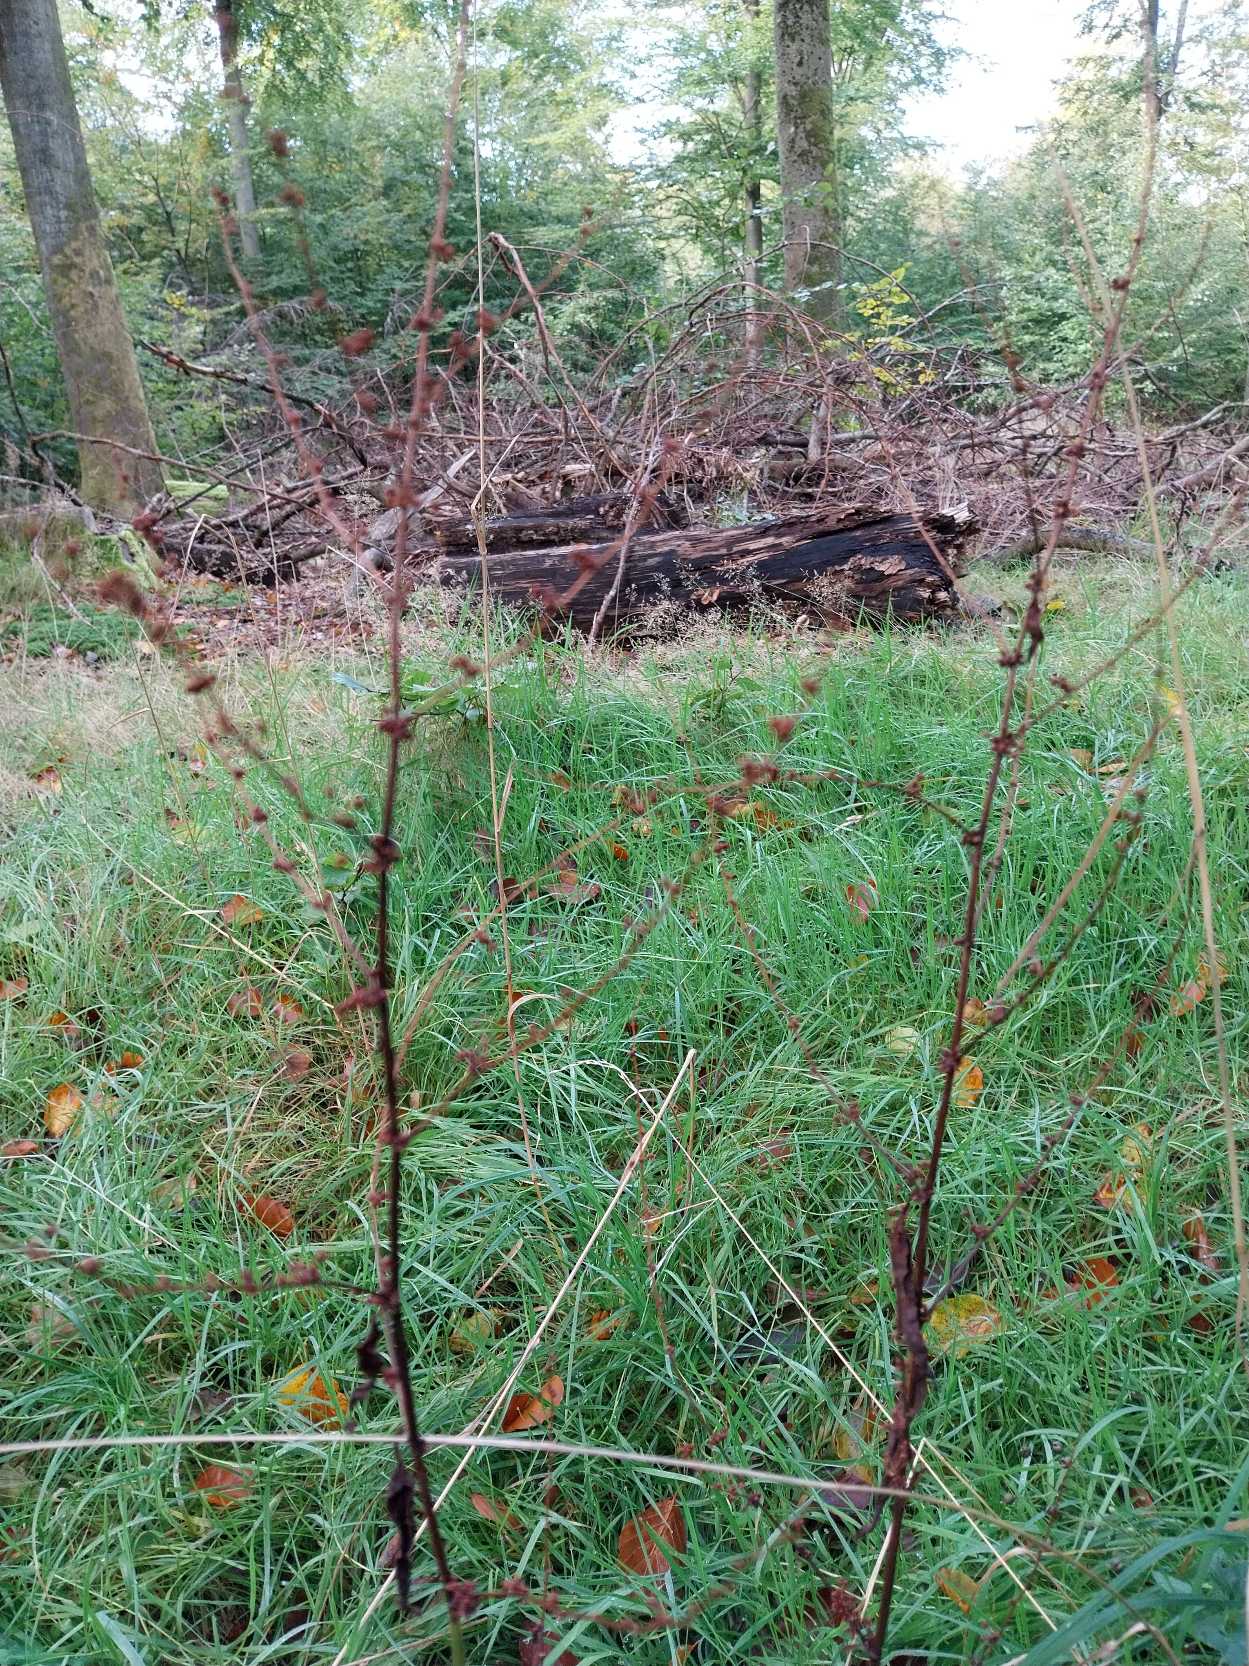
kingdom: Plantae
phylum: Tracheophyta
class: Magnoliopsida
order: Caryophyllales
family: Polygonaceae
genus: Rumex
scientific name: Rumex sanguineus
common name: Skov-skræppe
